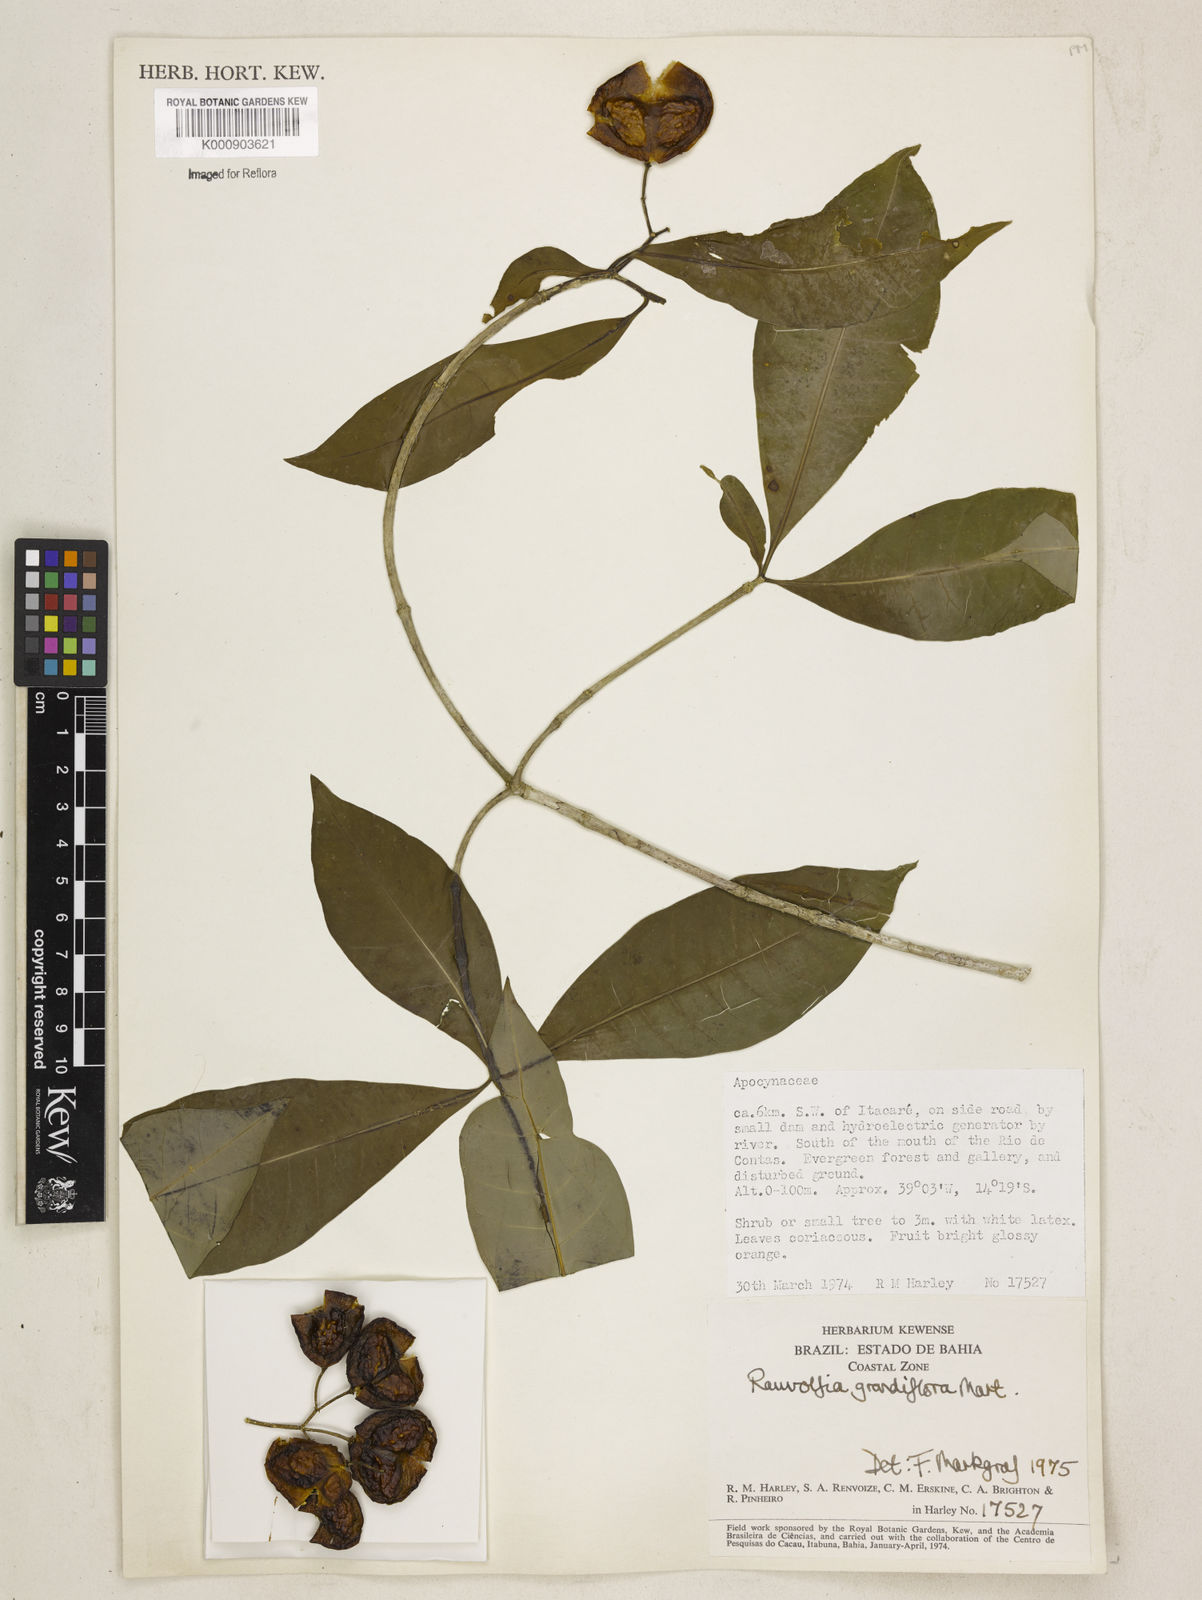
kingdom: Plantae
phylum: Tracheophyta
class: Magnoliopsida
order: Gentianales
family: Apocynaceae
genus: Rauvolfia
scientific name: Rauvolfia
